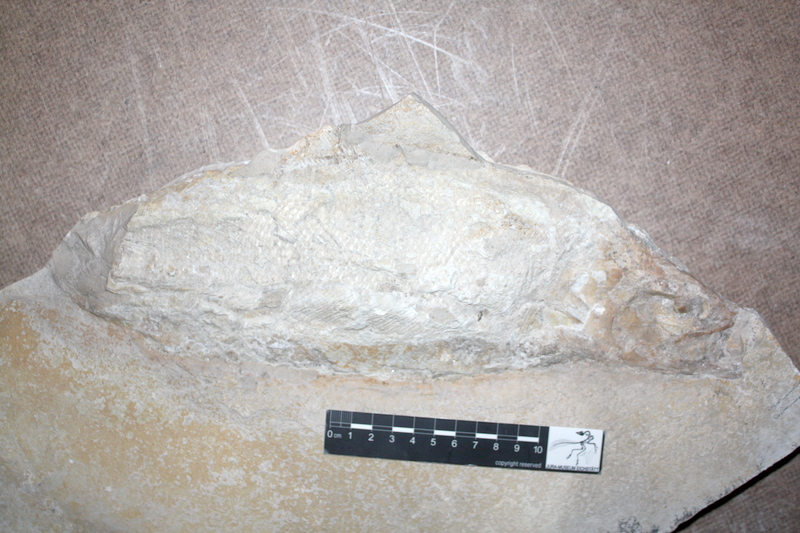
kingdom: Animalia
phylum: Chordata
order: Amiiformes
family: Caturidae
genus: Caturus
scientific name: Caturus
